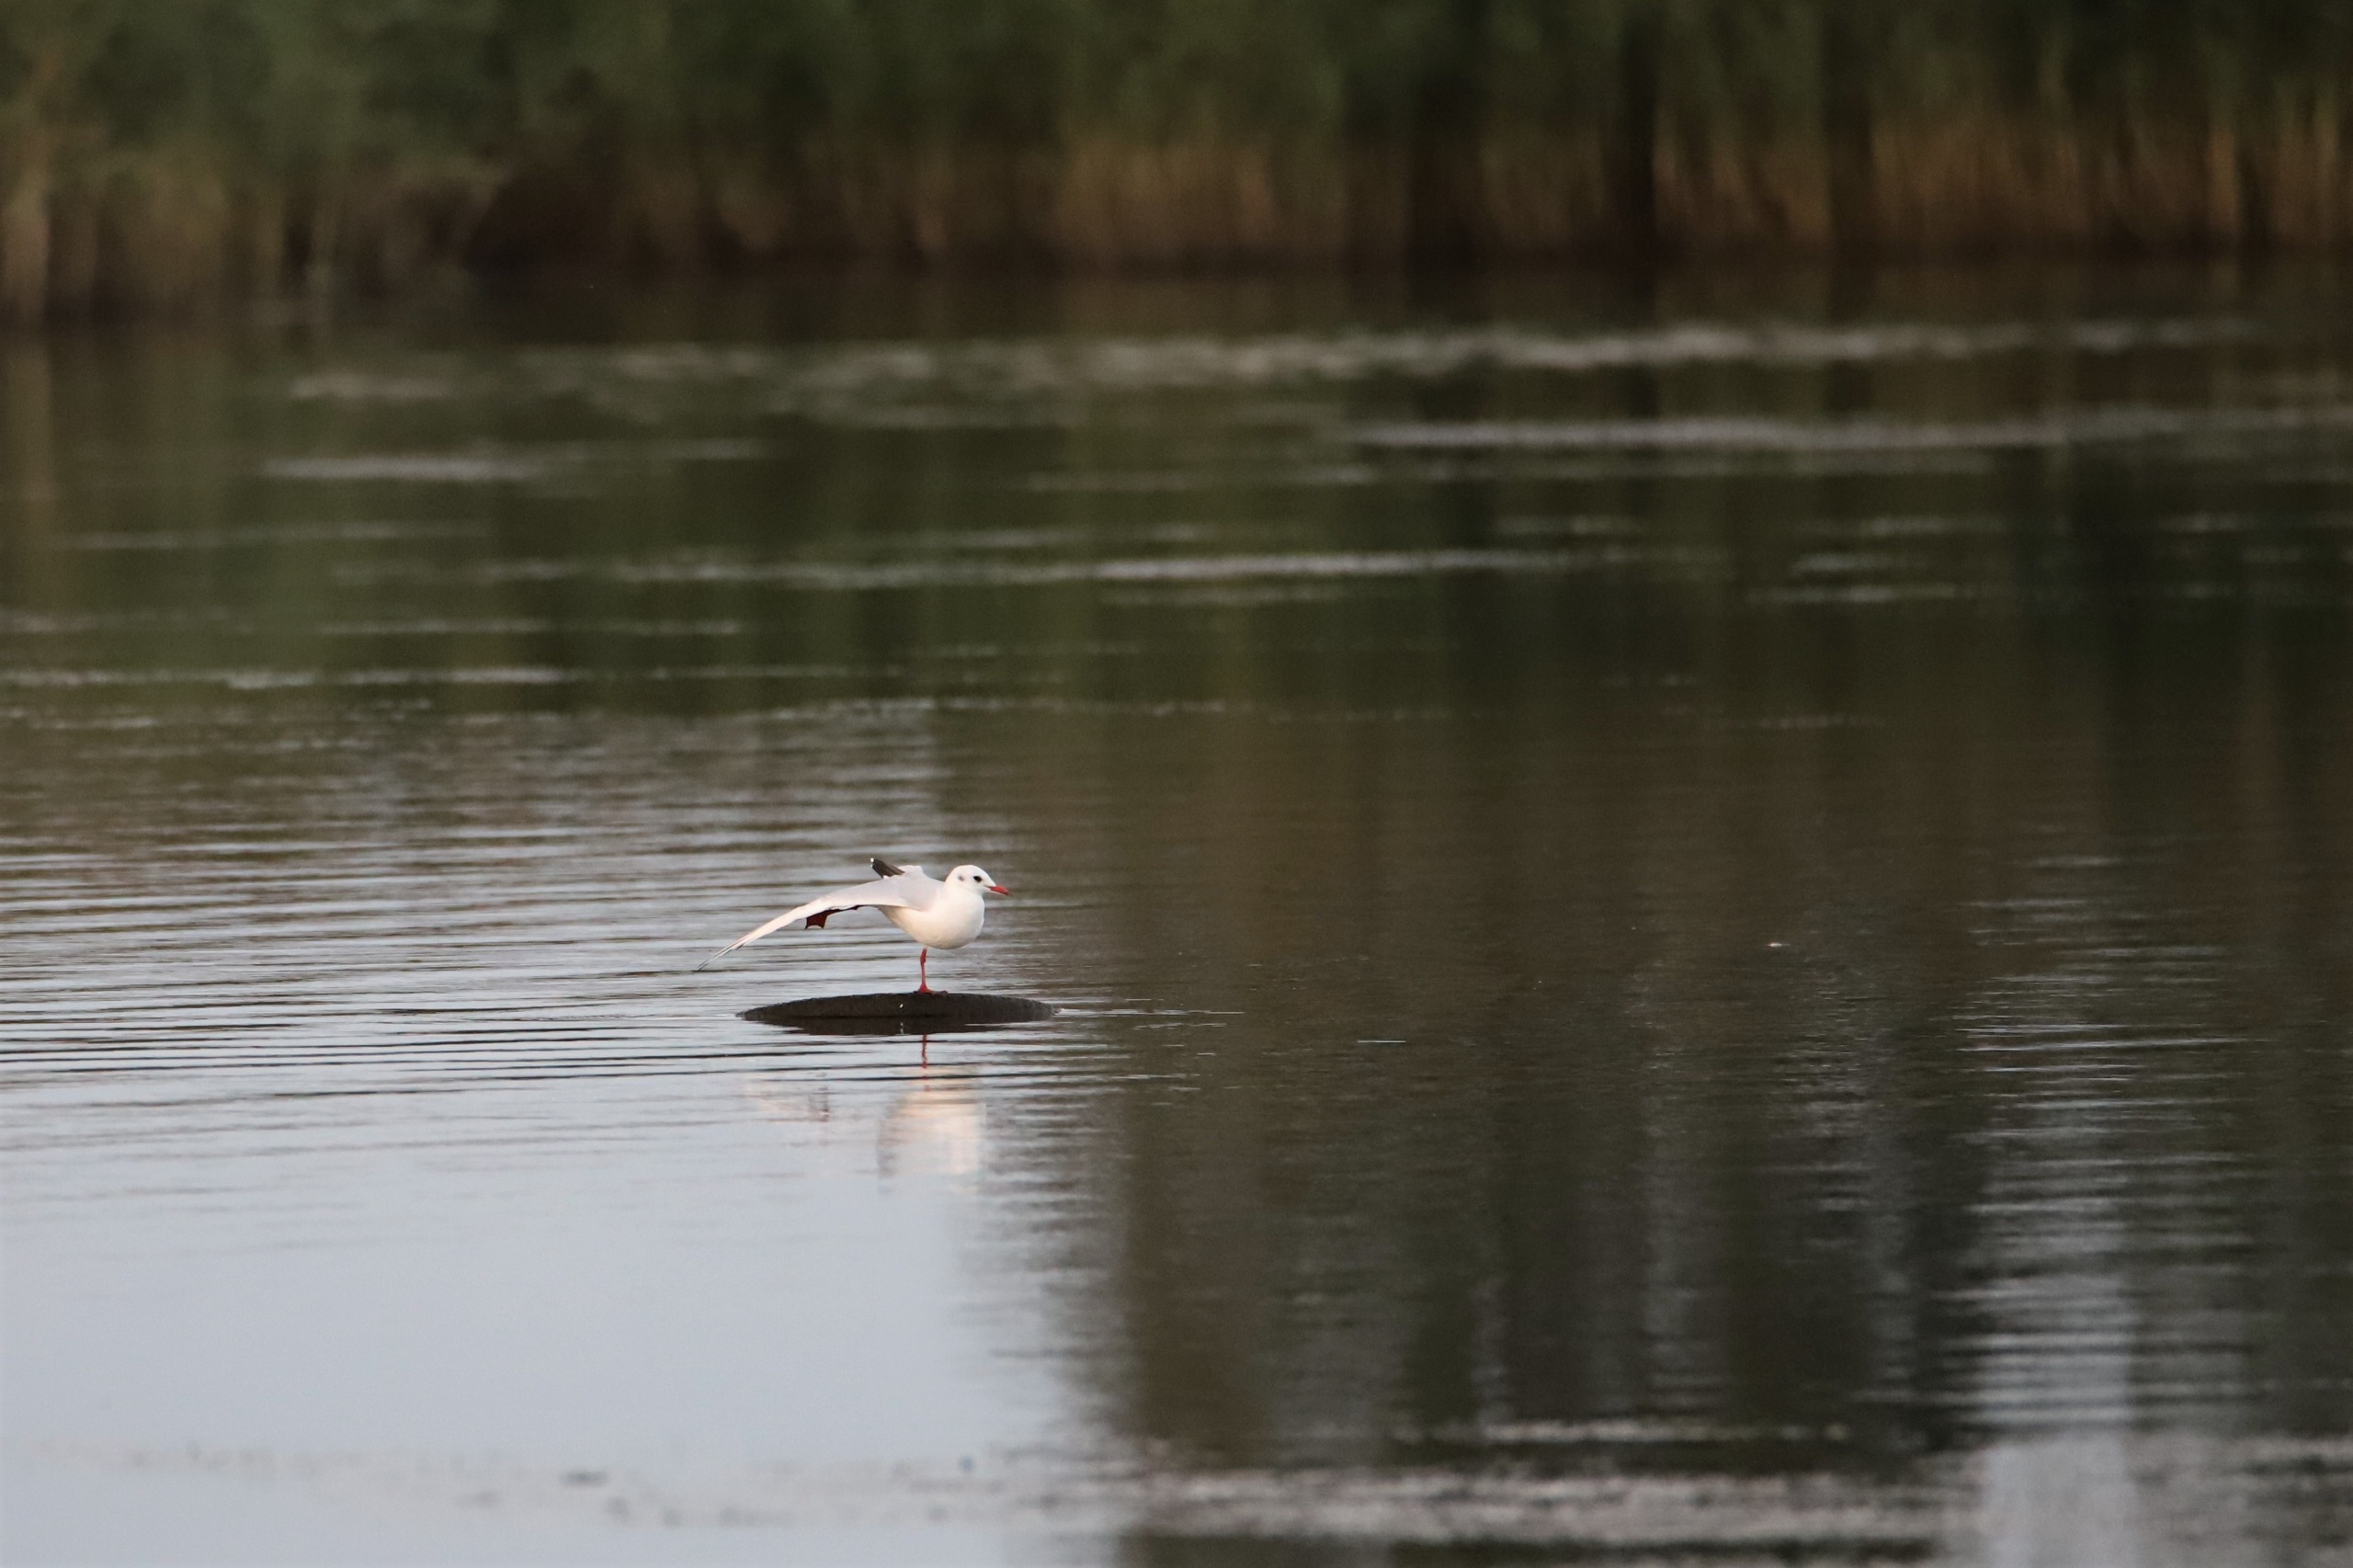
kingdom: Animalia
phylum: Chordata
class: Aves
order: Charadriiformes
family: Laridae
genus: Chroicocephalus
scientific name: Chroicocephalus ridibundus
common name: Hættemåge
